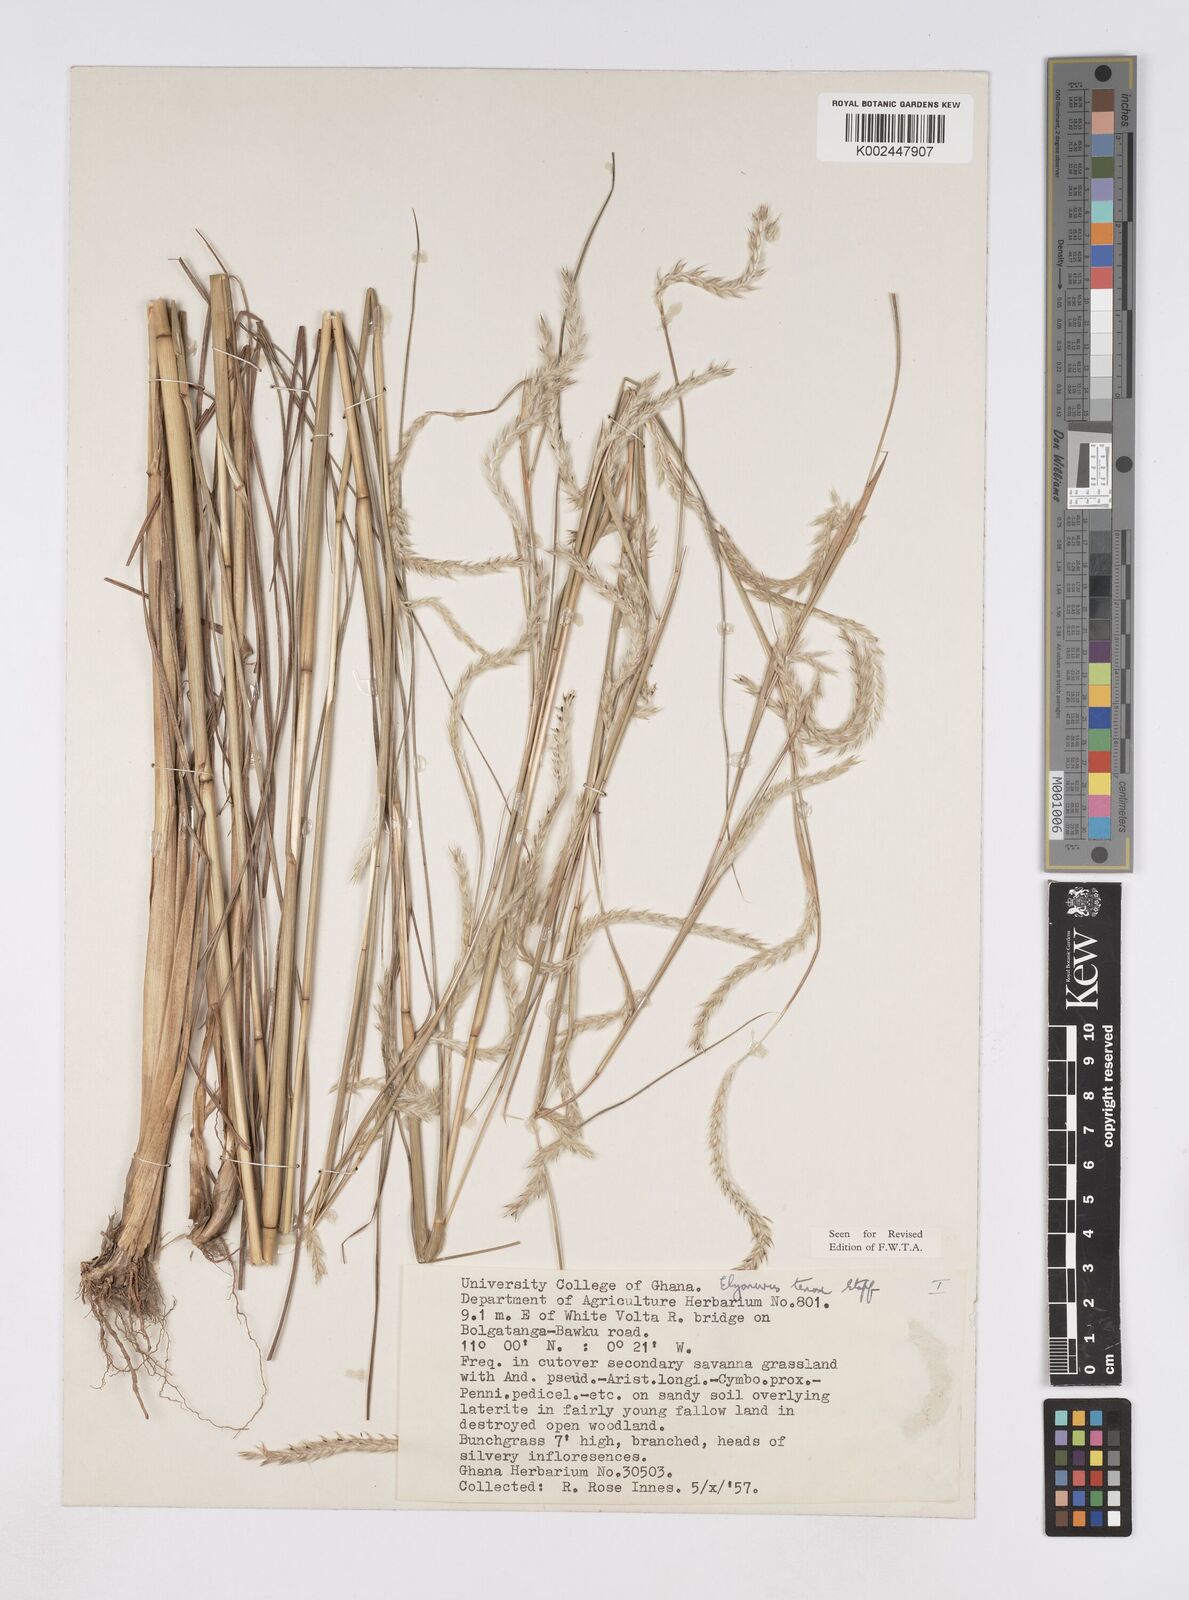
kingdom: Plantae
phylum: Tracheophyta
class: Liliopsida
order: Poales
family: Poaceae
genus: Elionurus
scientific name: Elionurus
